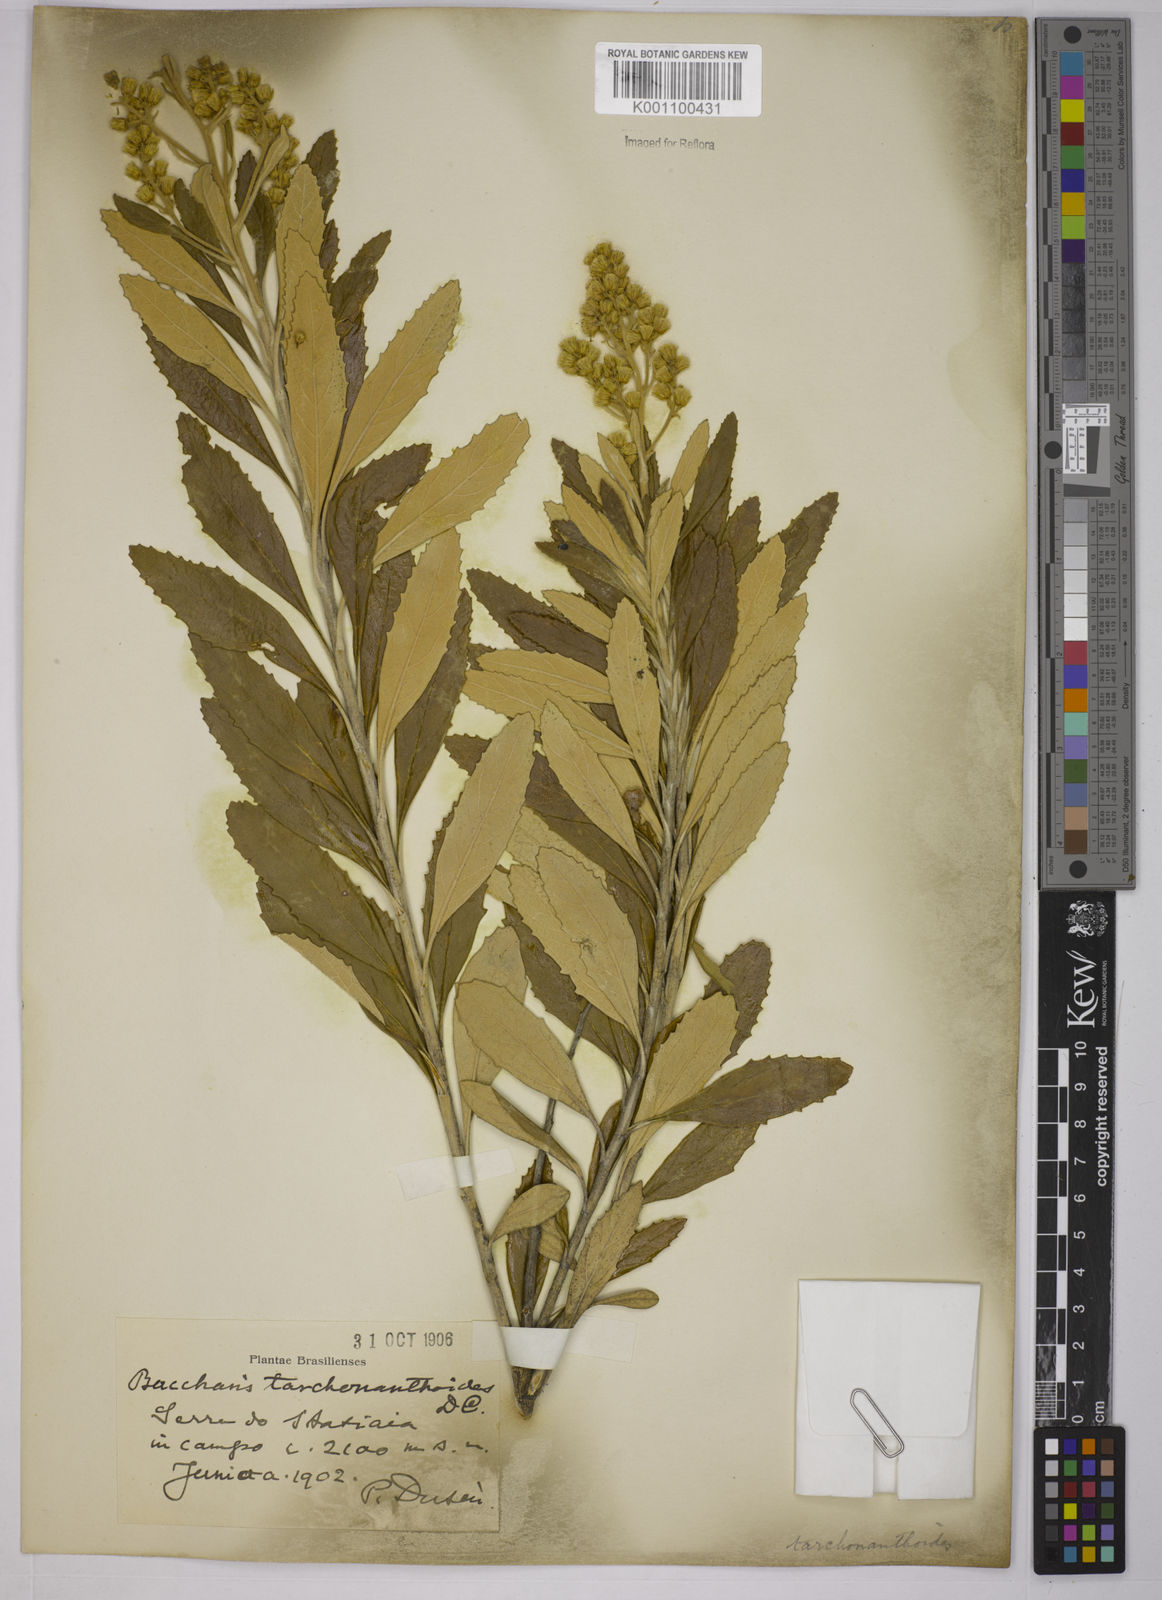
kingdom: Plantae
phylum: Tracheophyta
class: Magnoliopsida
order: Asterales
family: Asteraceae
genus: Baccharis
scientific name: Baccharis
